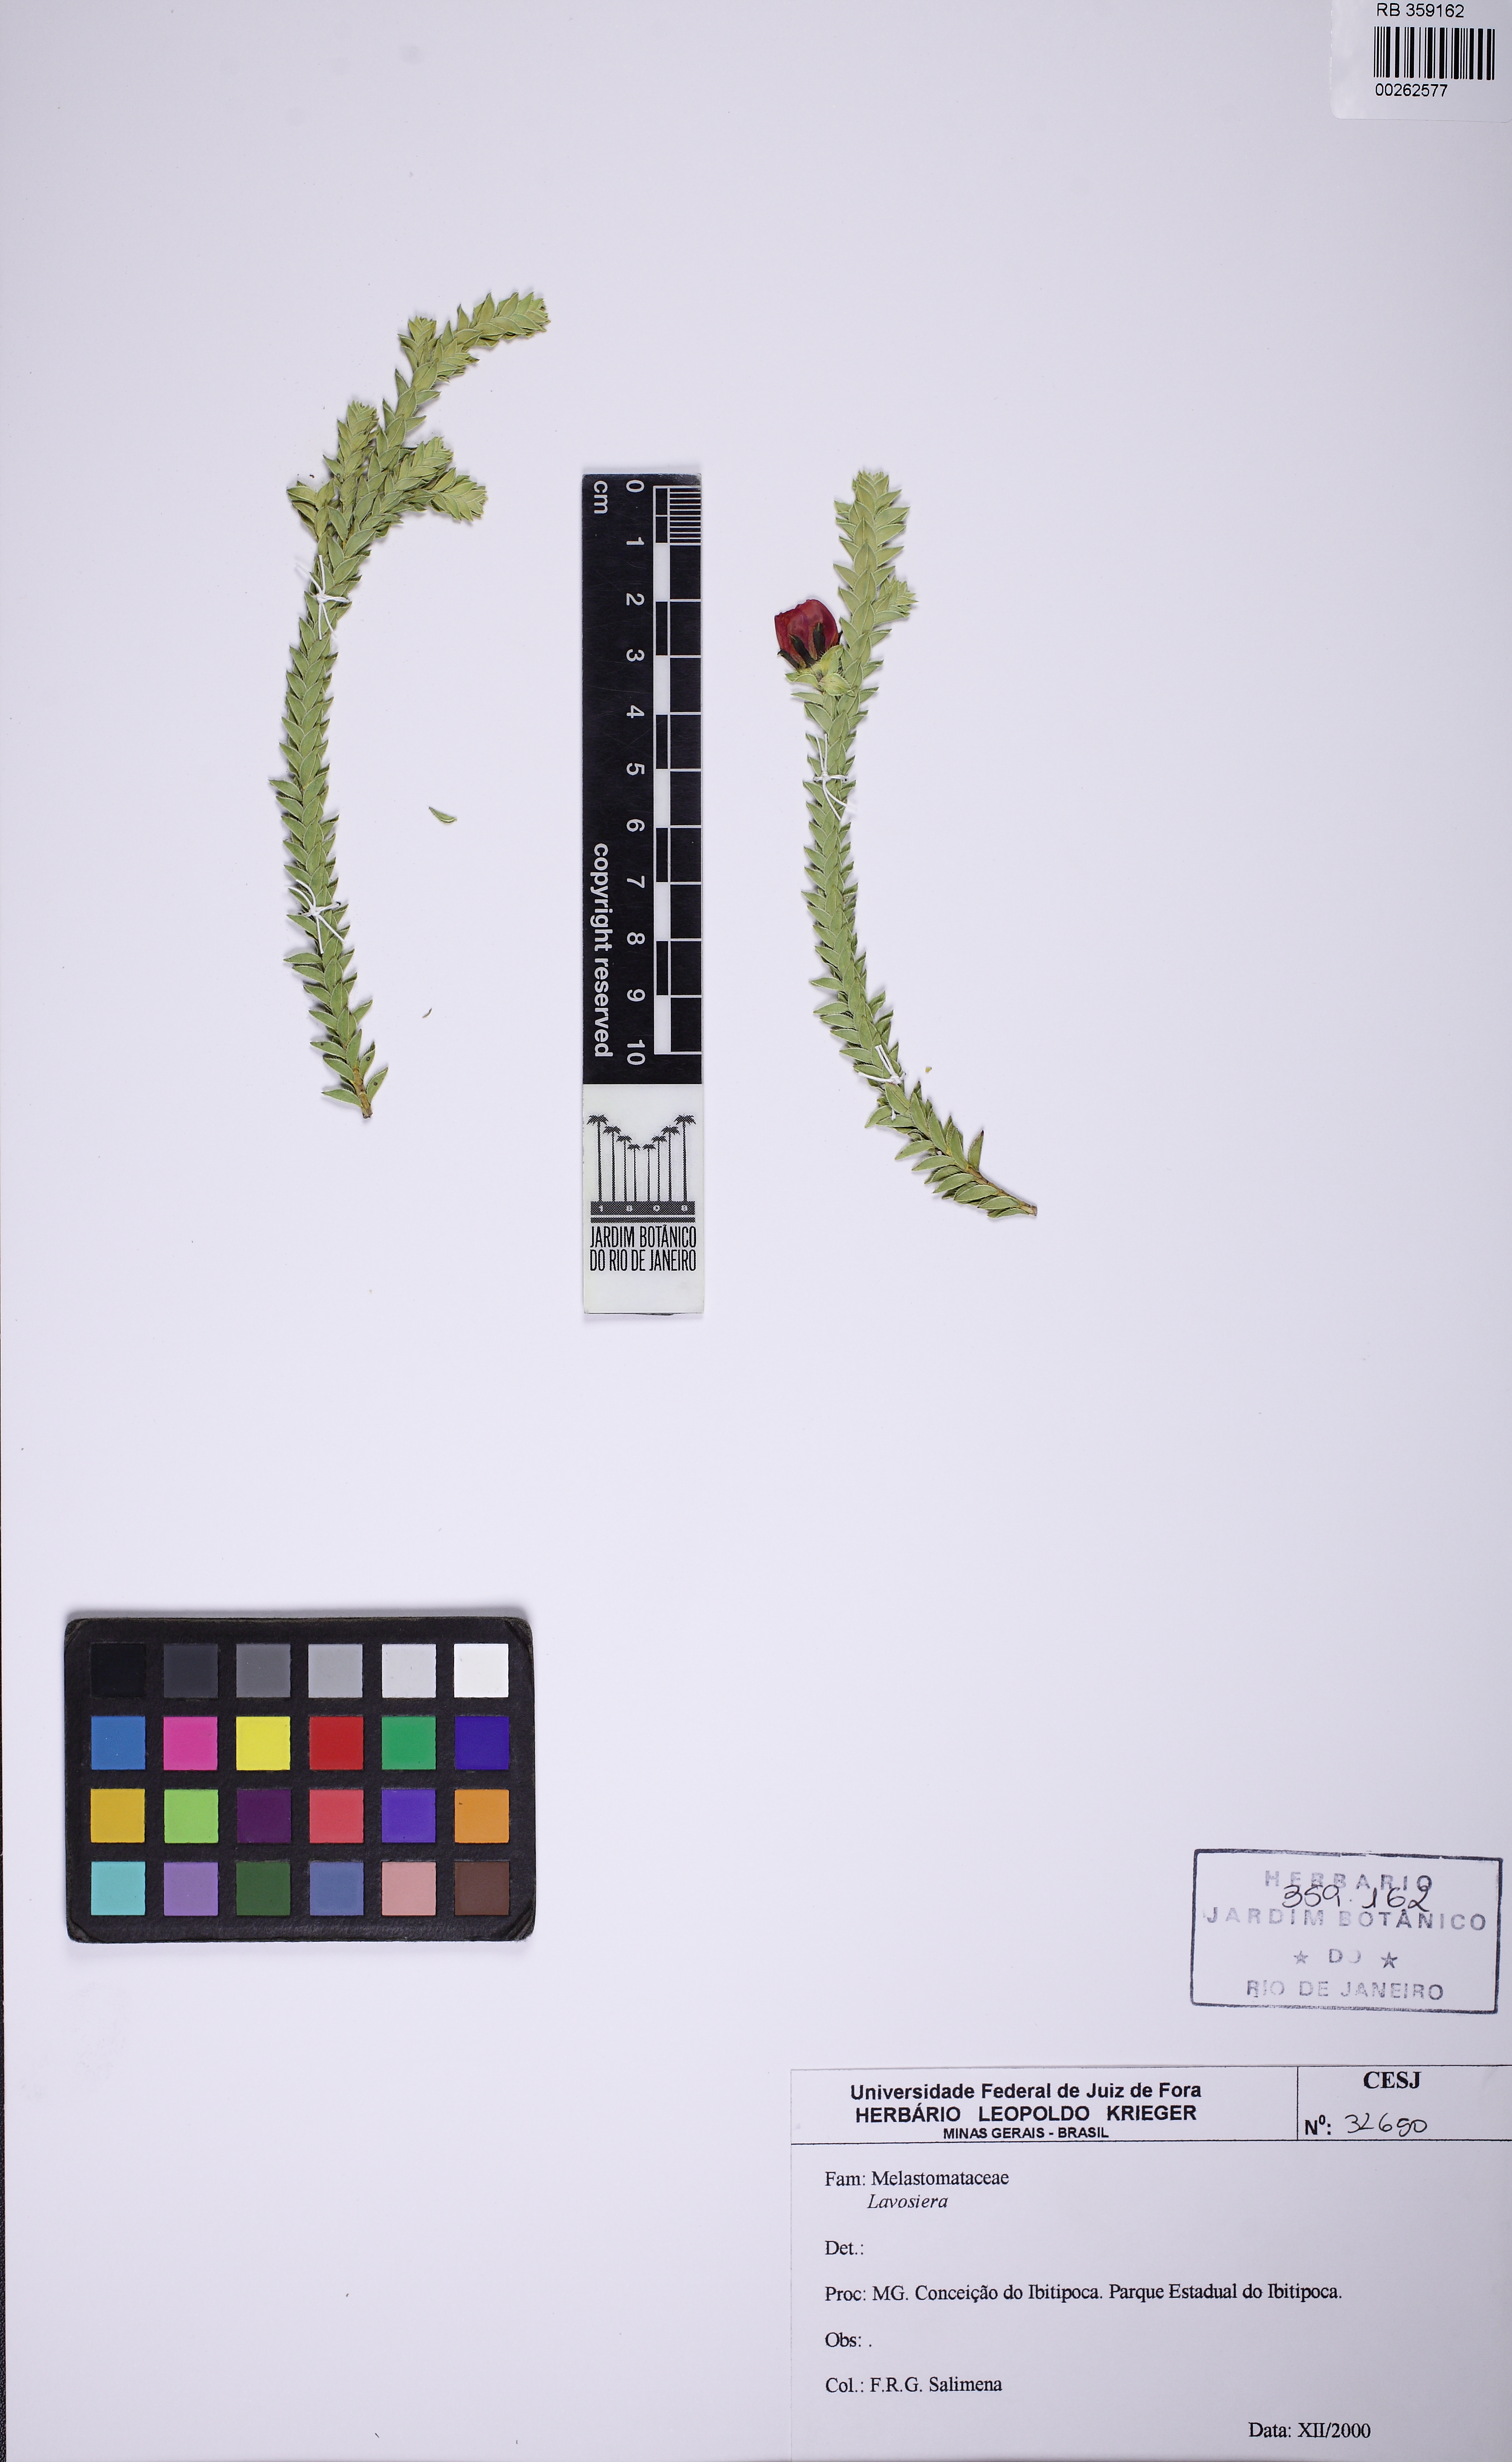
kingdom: Plantae
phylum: Tracheophyta
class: Magnoliopsida
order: Myrtales
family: Melastomataceae
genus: Microlicia
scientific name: Microlicia
